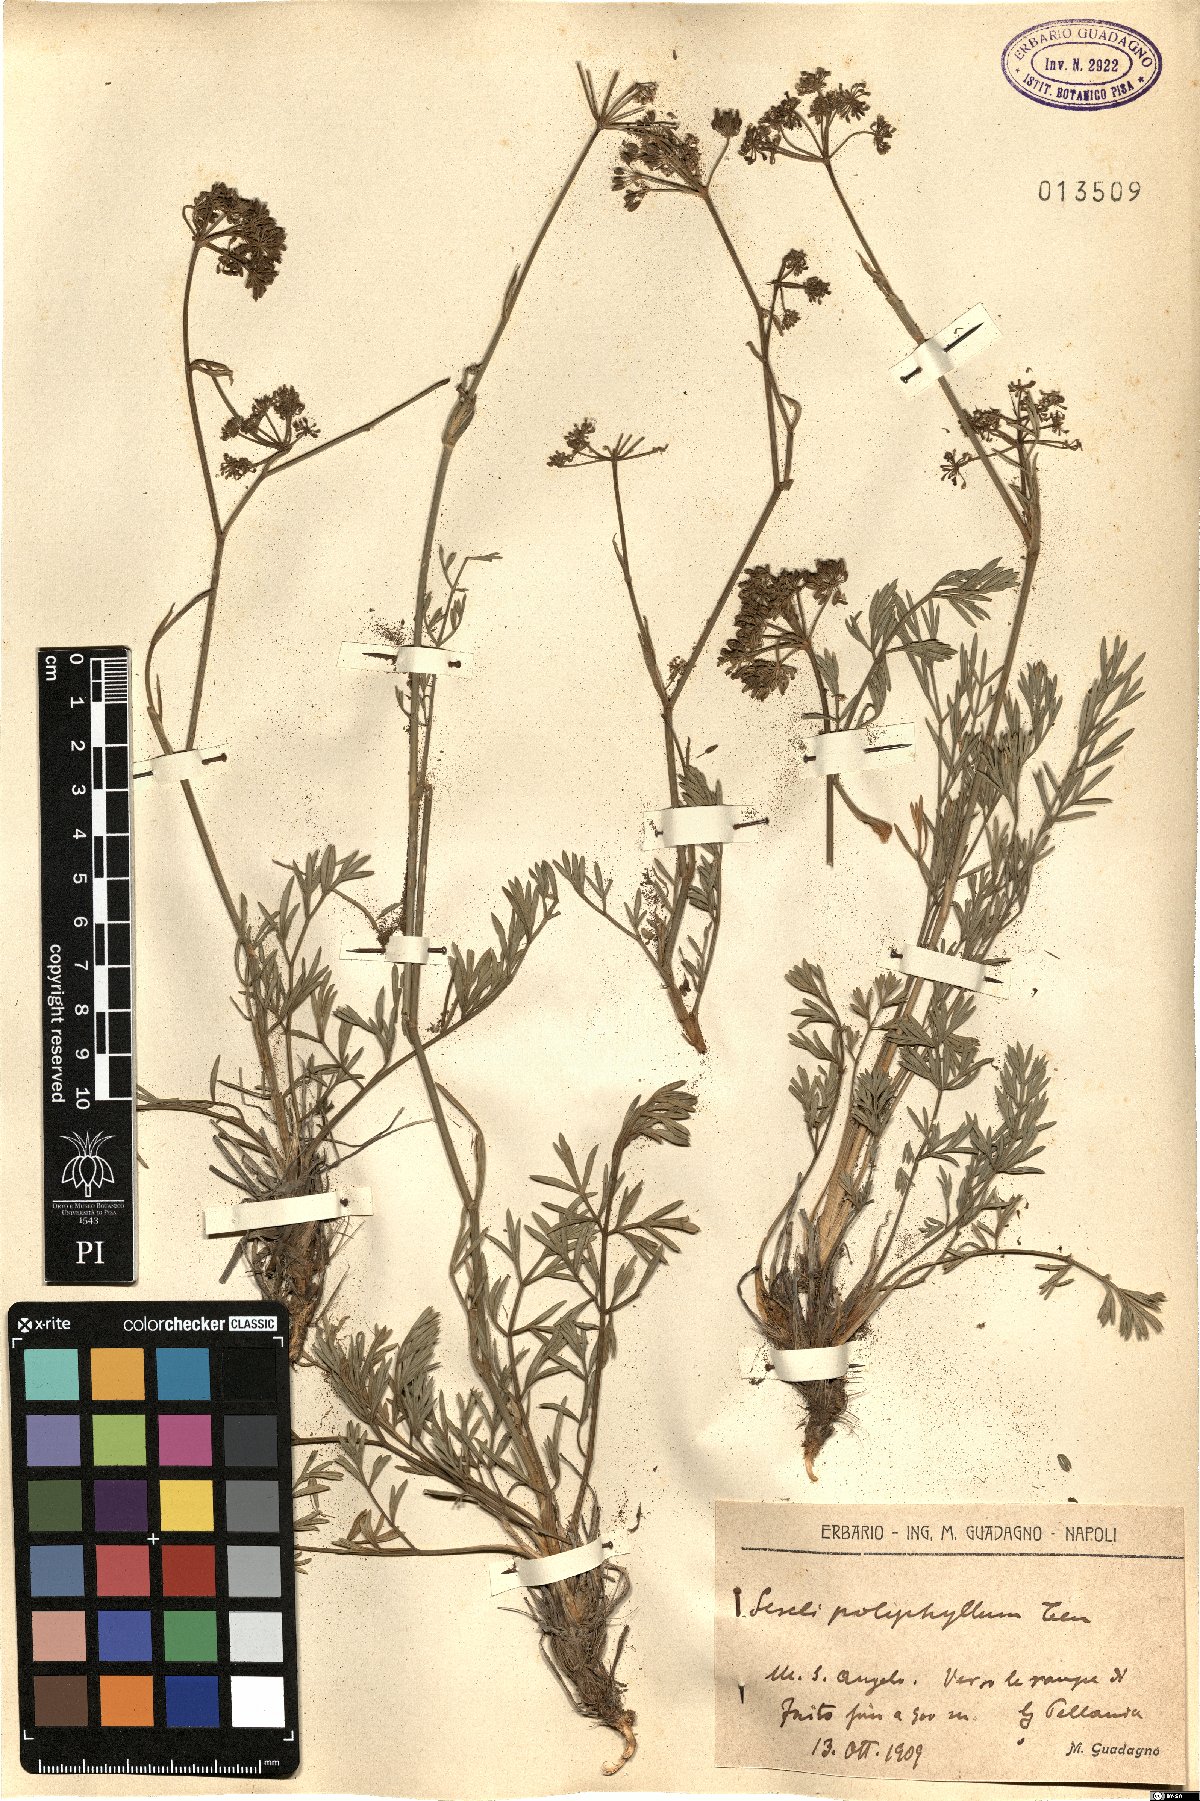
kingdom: Plantae
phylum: Tracheophyta
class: Magnoliopsida
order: Apiales
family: Apiaceae
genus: Seseli
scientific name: Seseli polyphyllum
